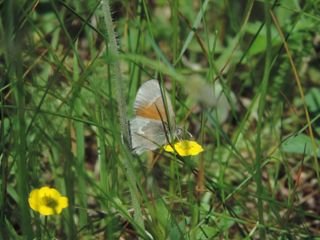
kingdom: Animalia
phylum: Arthropoda
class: Insecta
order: Lepidoptera
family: Nymphalidae
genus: Coenonympha
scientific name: Coenonympha tullia
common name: Large Heath
